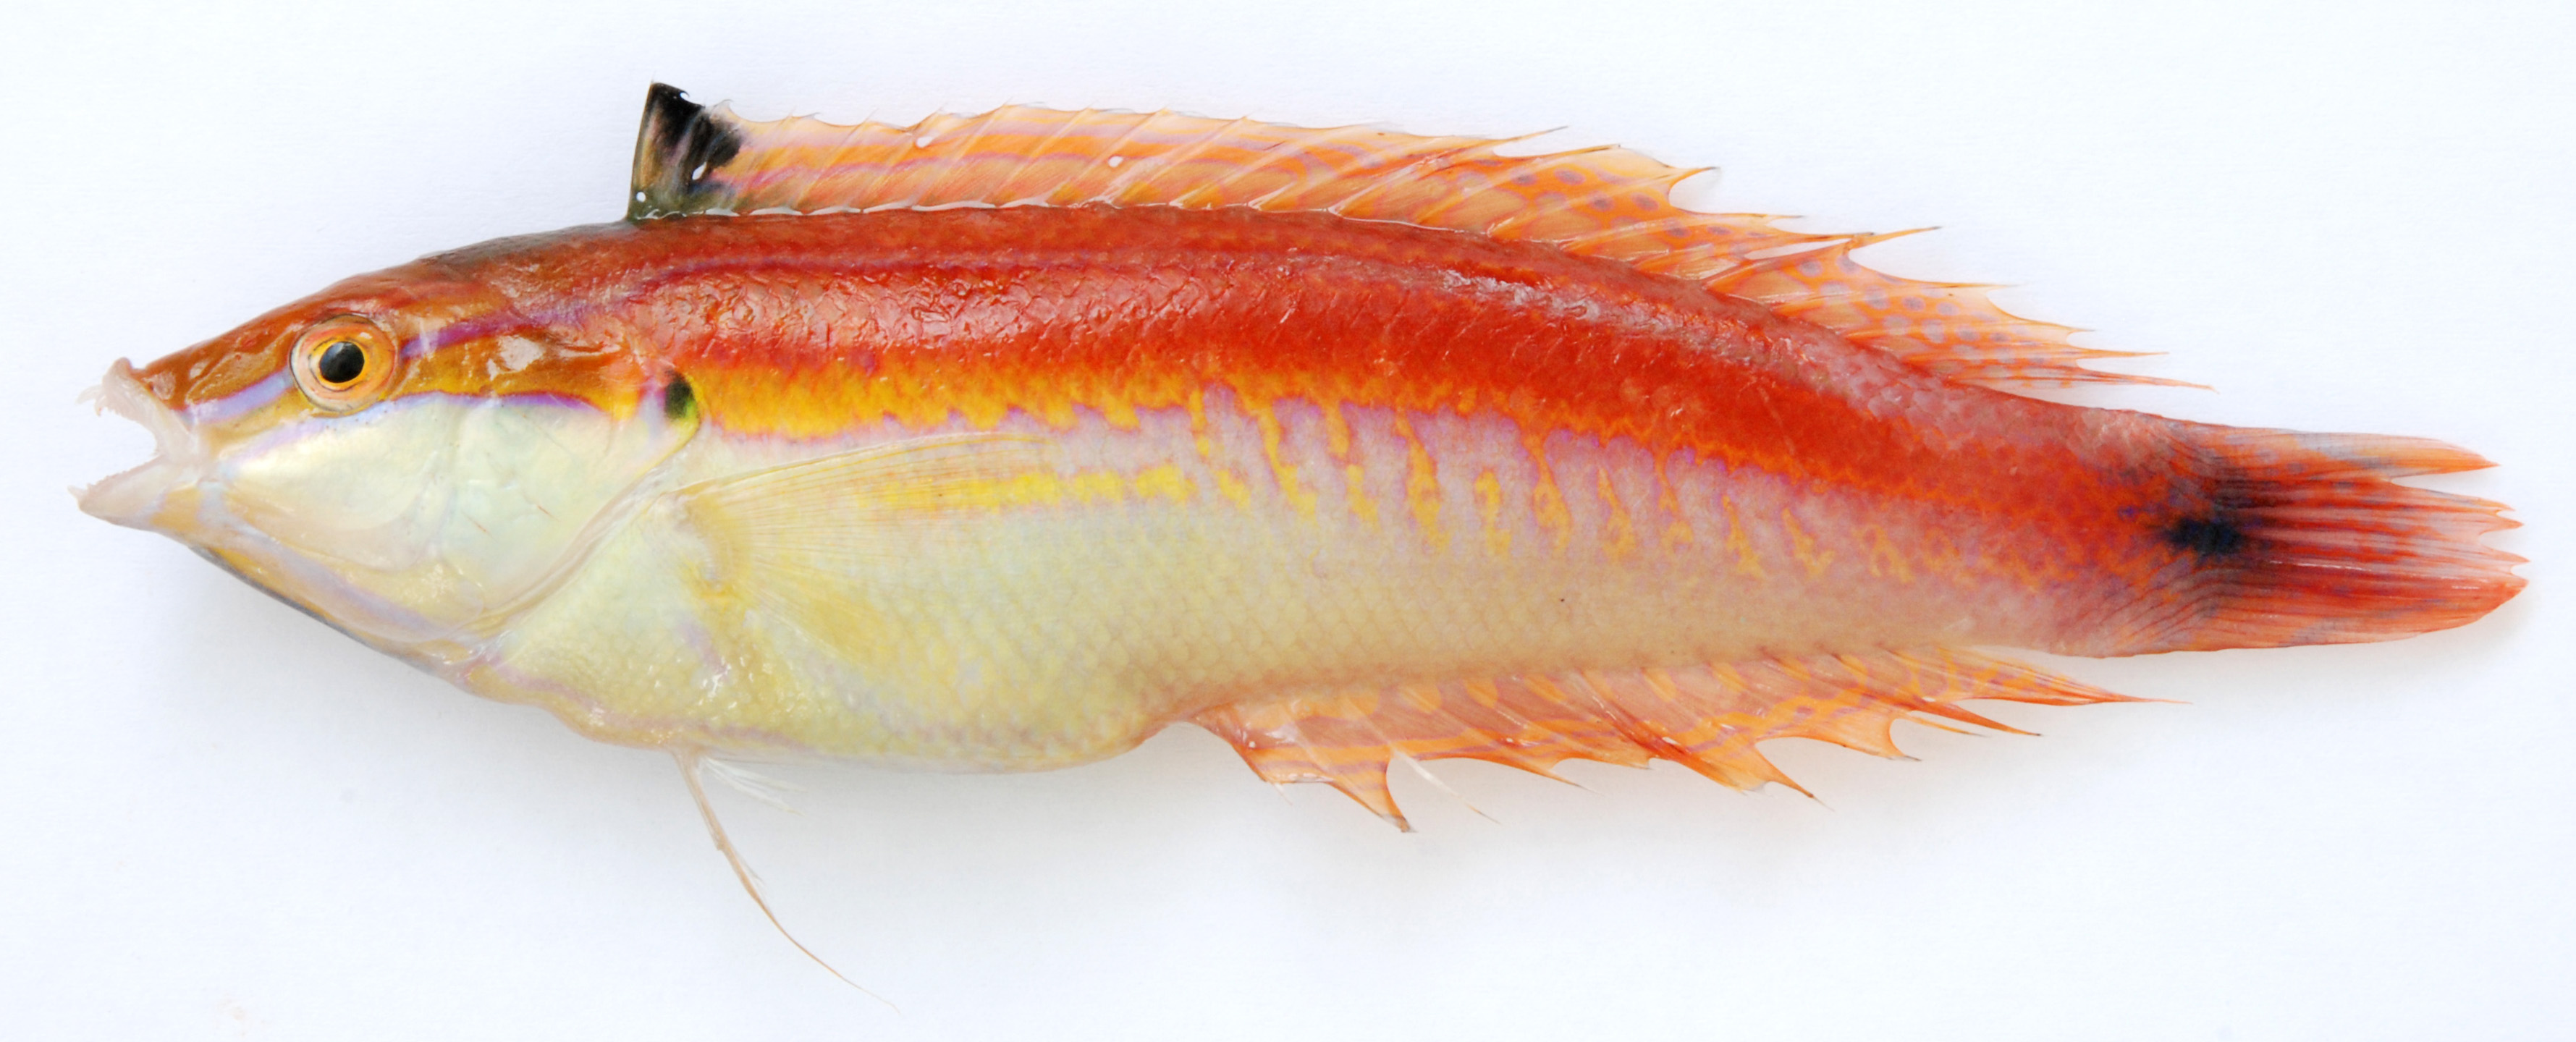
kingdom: Animalia
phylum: Chordata
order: Perciformes
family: Labridae
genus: Coris
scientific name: Coris caudimacula
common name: Spottail coris
